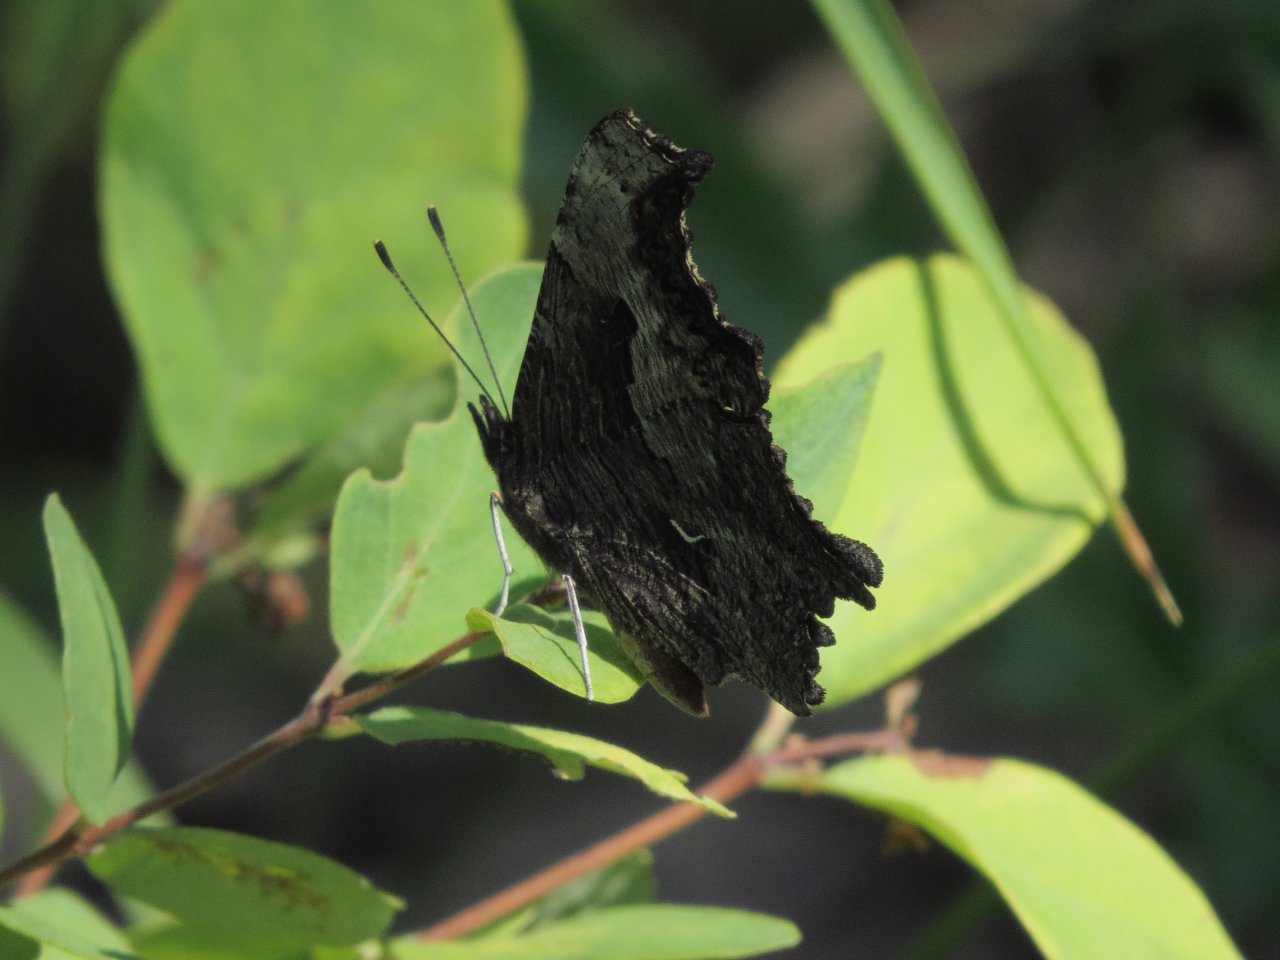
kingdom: Animalia
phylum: Arthropoda
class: Insecta
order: Lepidoptera
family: Nymphalidae
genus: Polygonia
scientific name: Polygonia gracilis
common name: Hoary Comma
